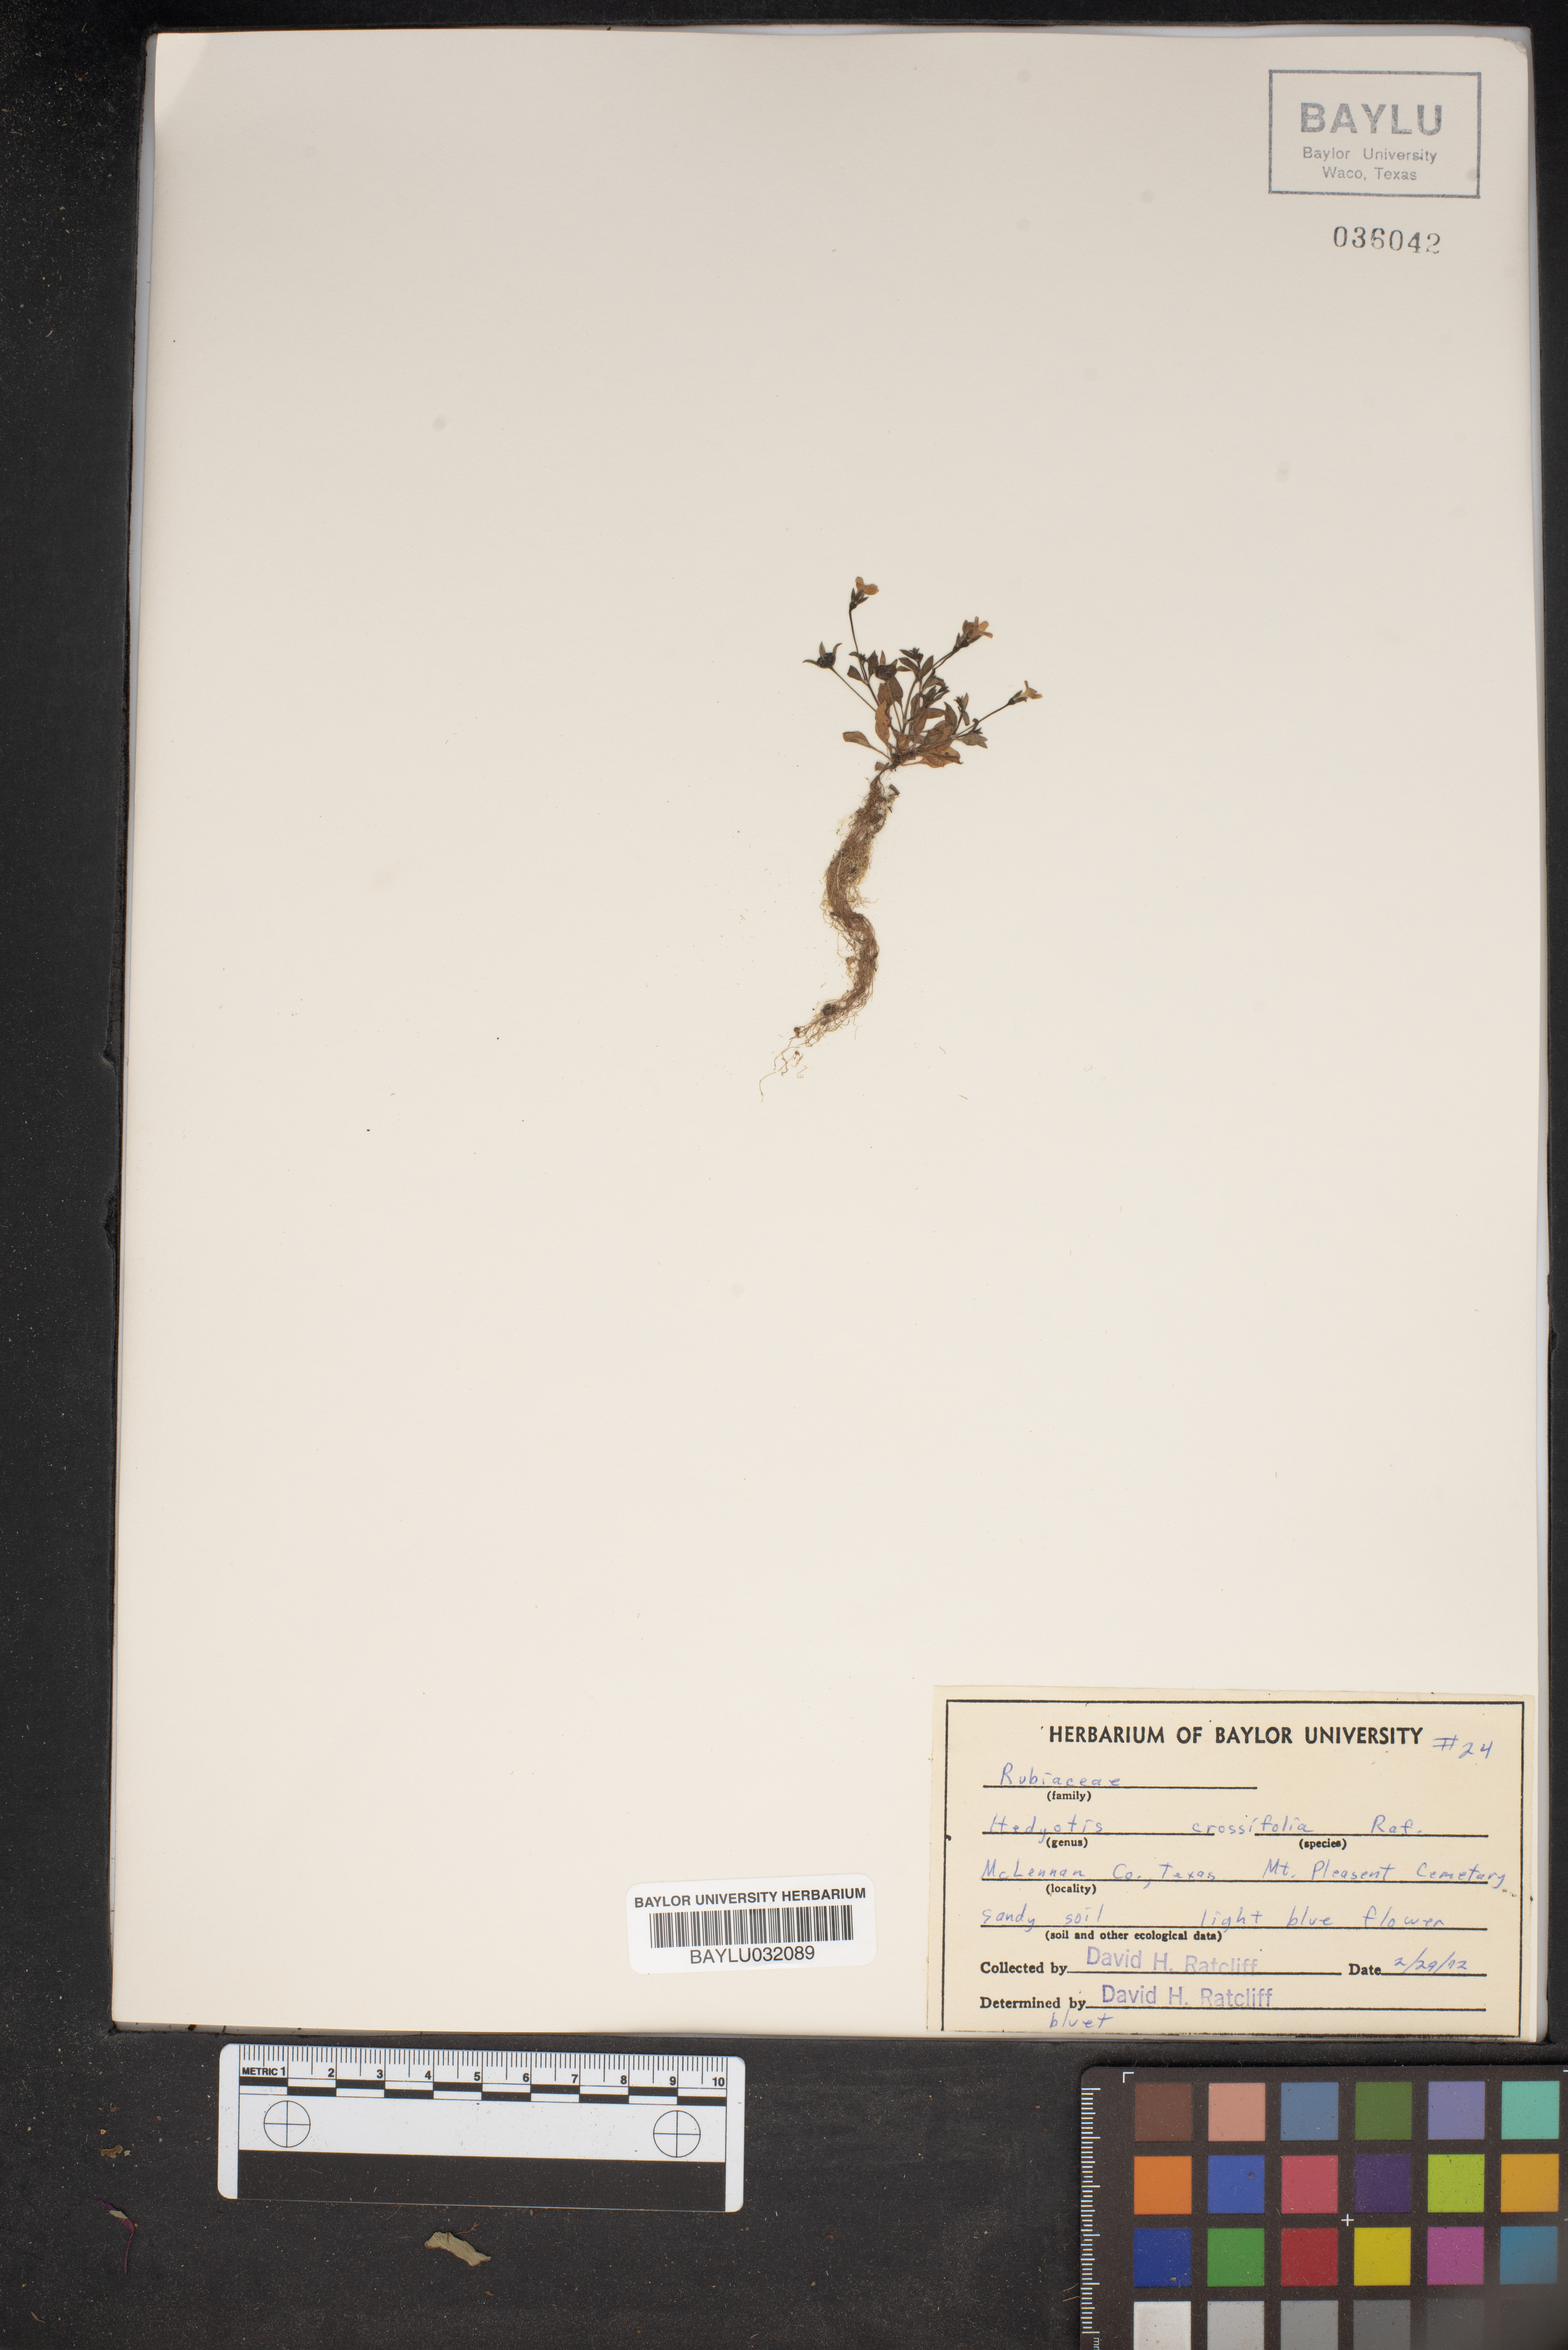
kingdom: Plantae
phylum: Tracheophyta
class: Magnoliopsida
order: Gentianales
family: Rubiaceae
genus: Houstonia
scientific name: Houstonia pusilla
